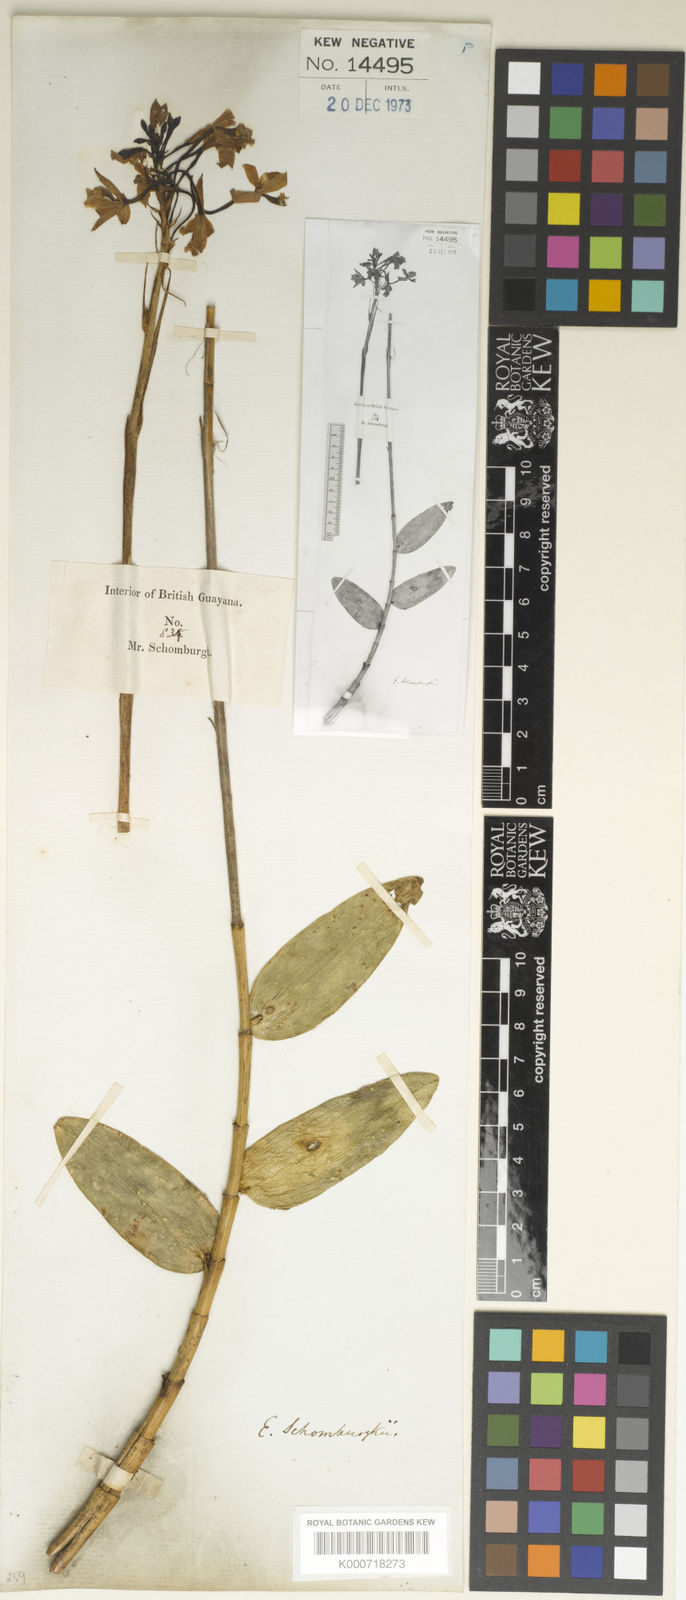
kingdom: Plantae
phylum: Tracheophyta
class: Liliopsida
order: Asparagales
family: Orchidaceae
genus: Epidendrum
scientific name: Epidendrum macrocarpum
